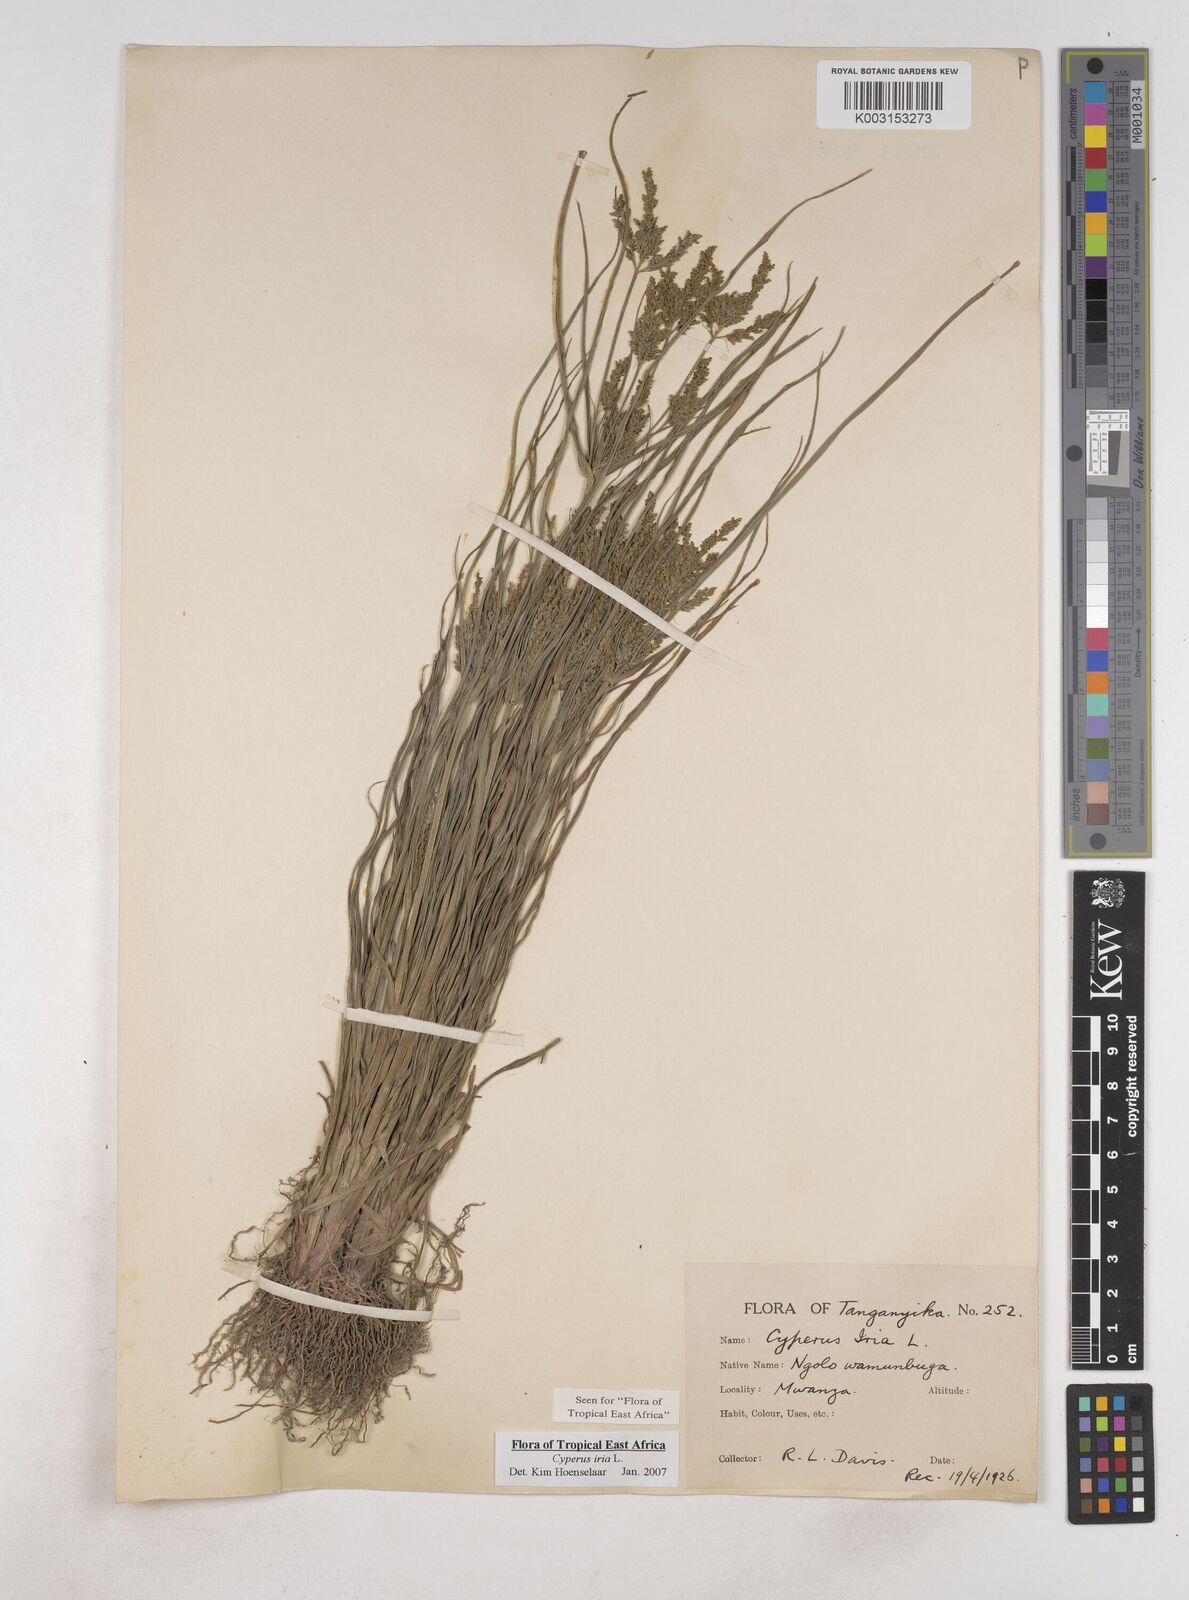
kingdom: Plantae
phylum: Tracheophyta
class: Liliopsida
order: Poales
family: Cyperaceae
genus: Cyperus
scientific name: Cyperus iria
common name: Ricefield flatsedge
